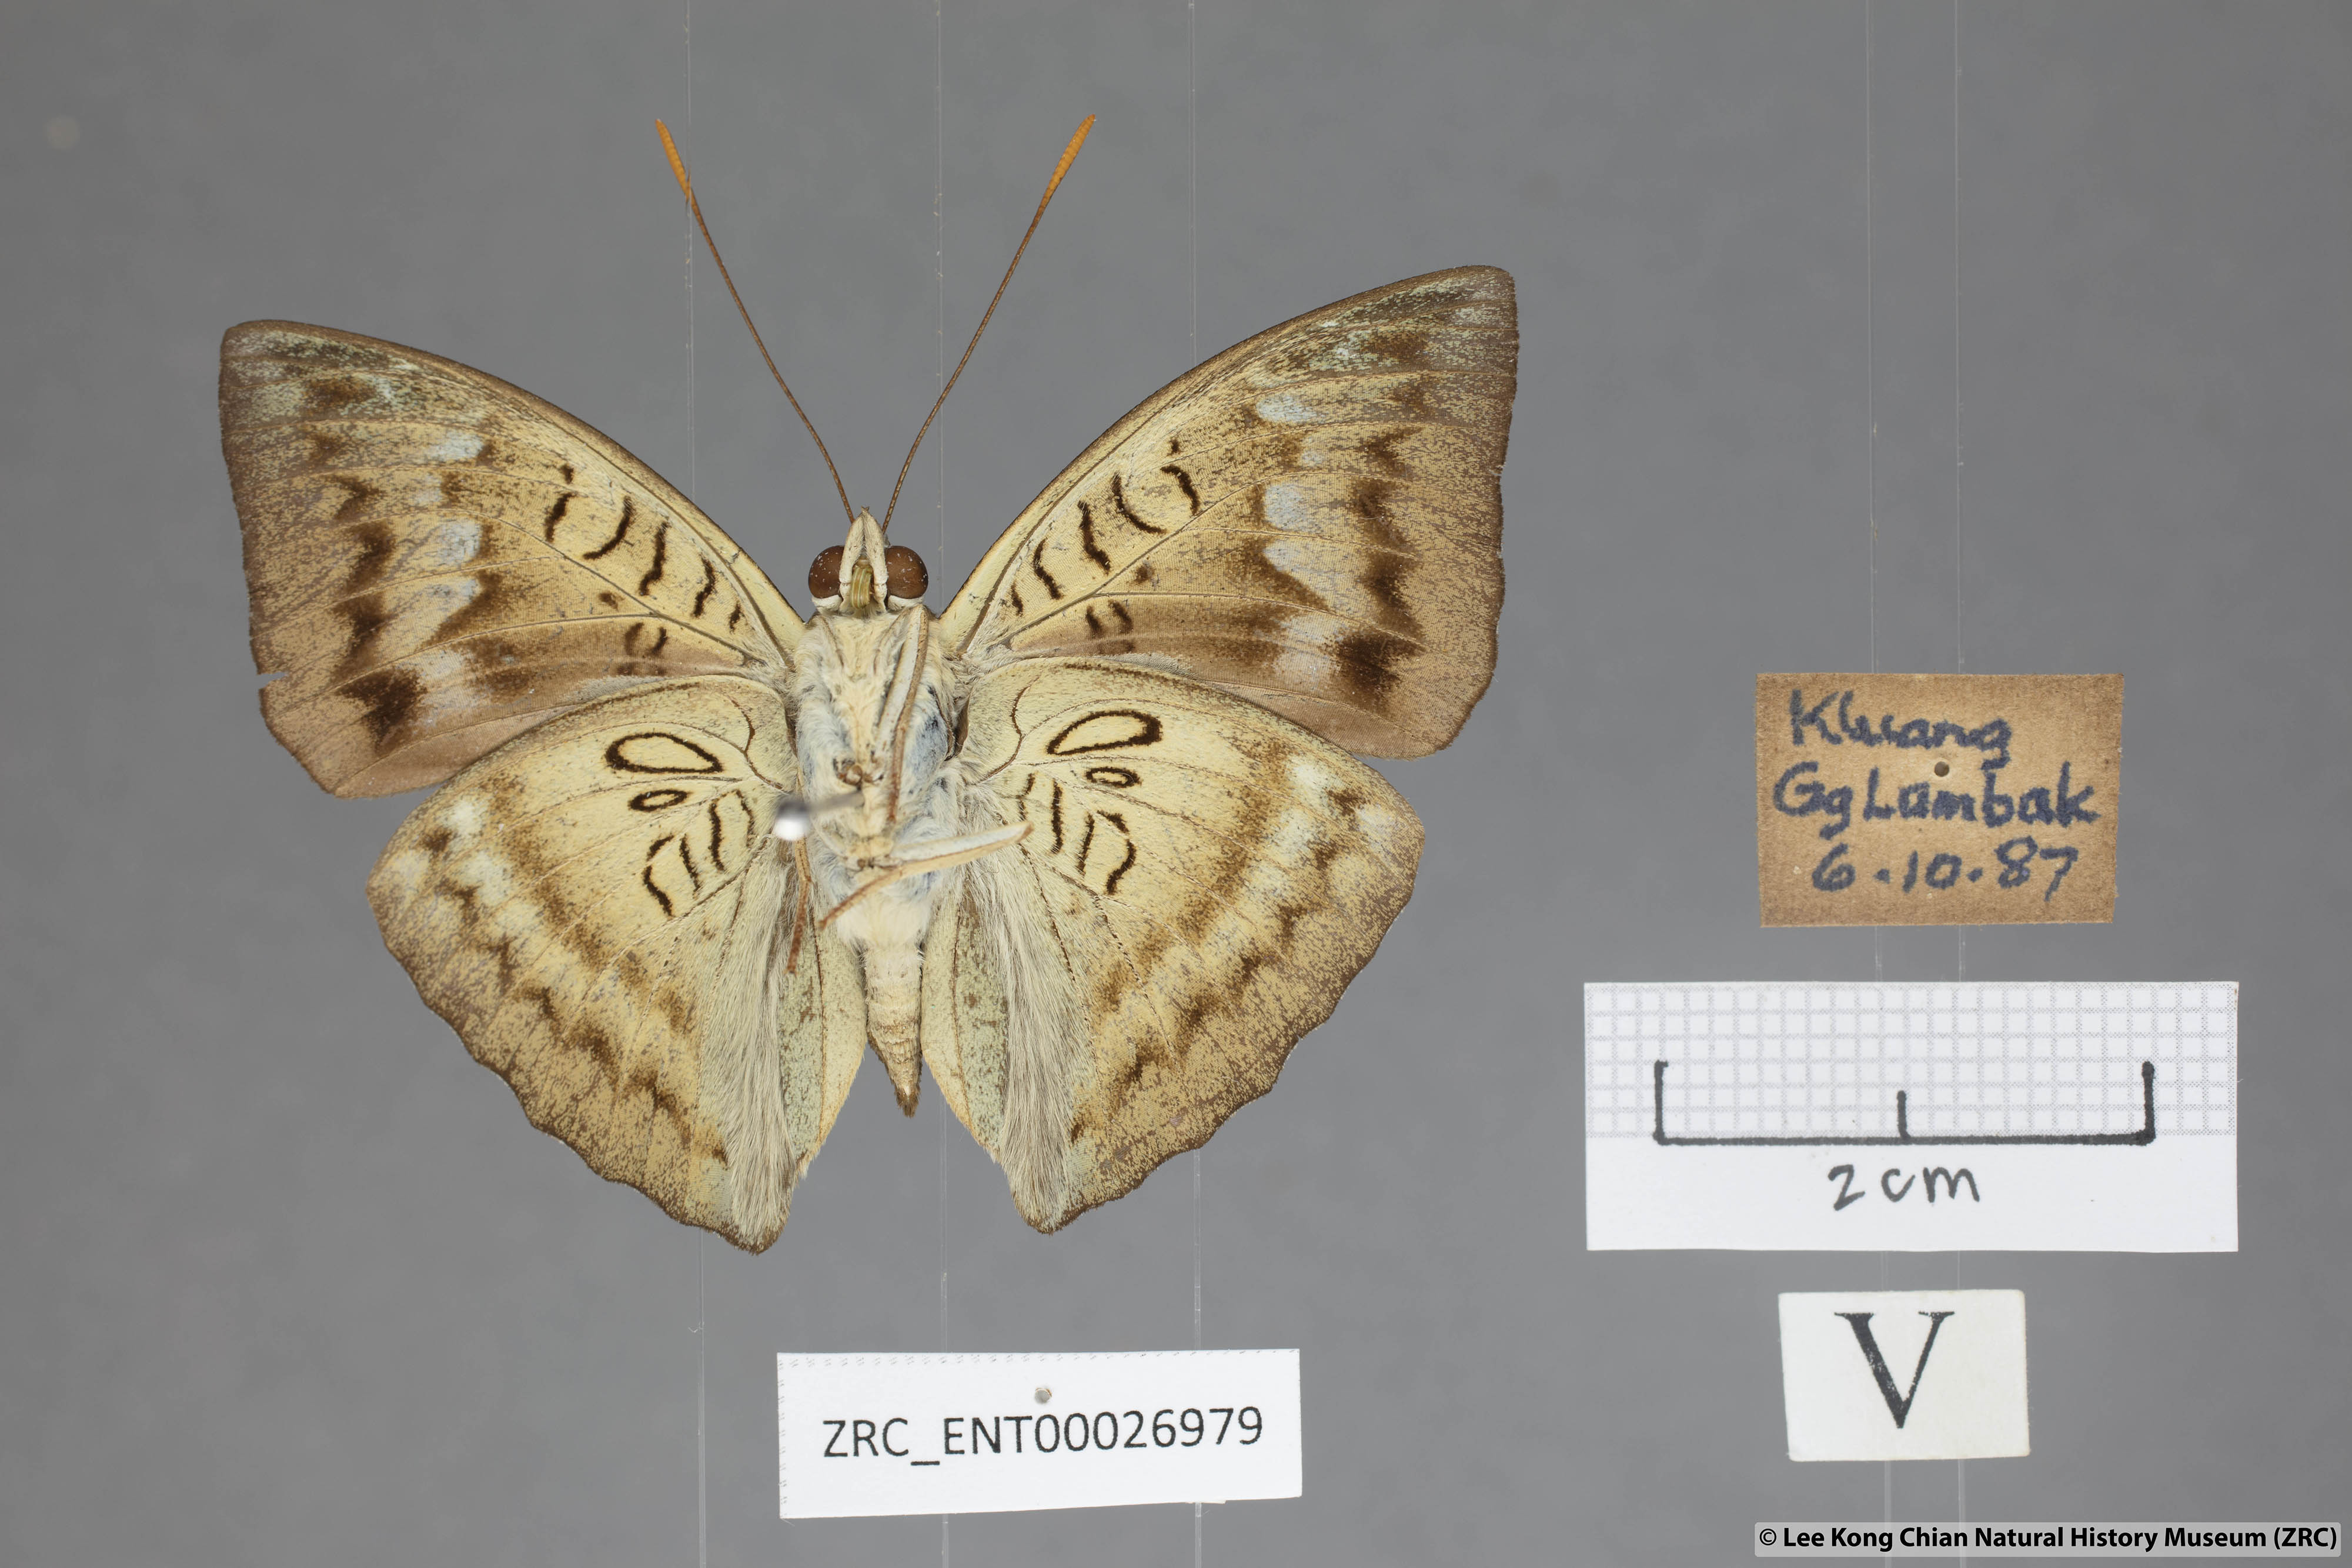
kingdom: Animalia
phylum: Arthropoda
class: Insecta
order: Lepidoptera
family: Nymphalidae
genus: Euthalia
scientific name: Euthalia monina
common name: Powdered baron
